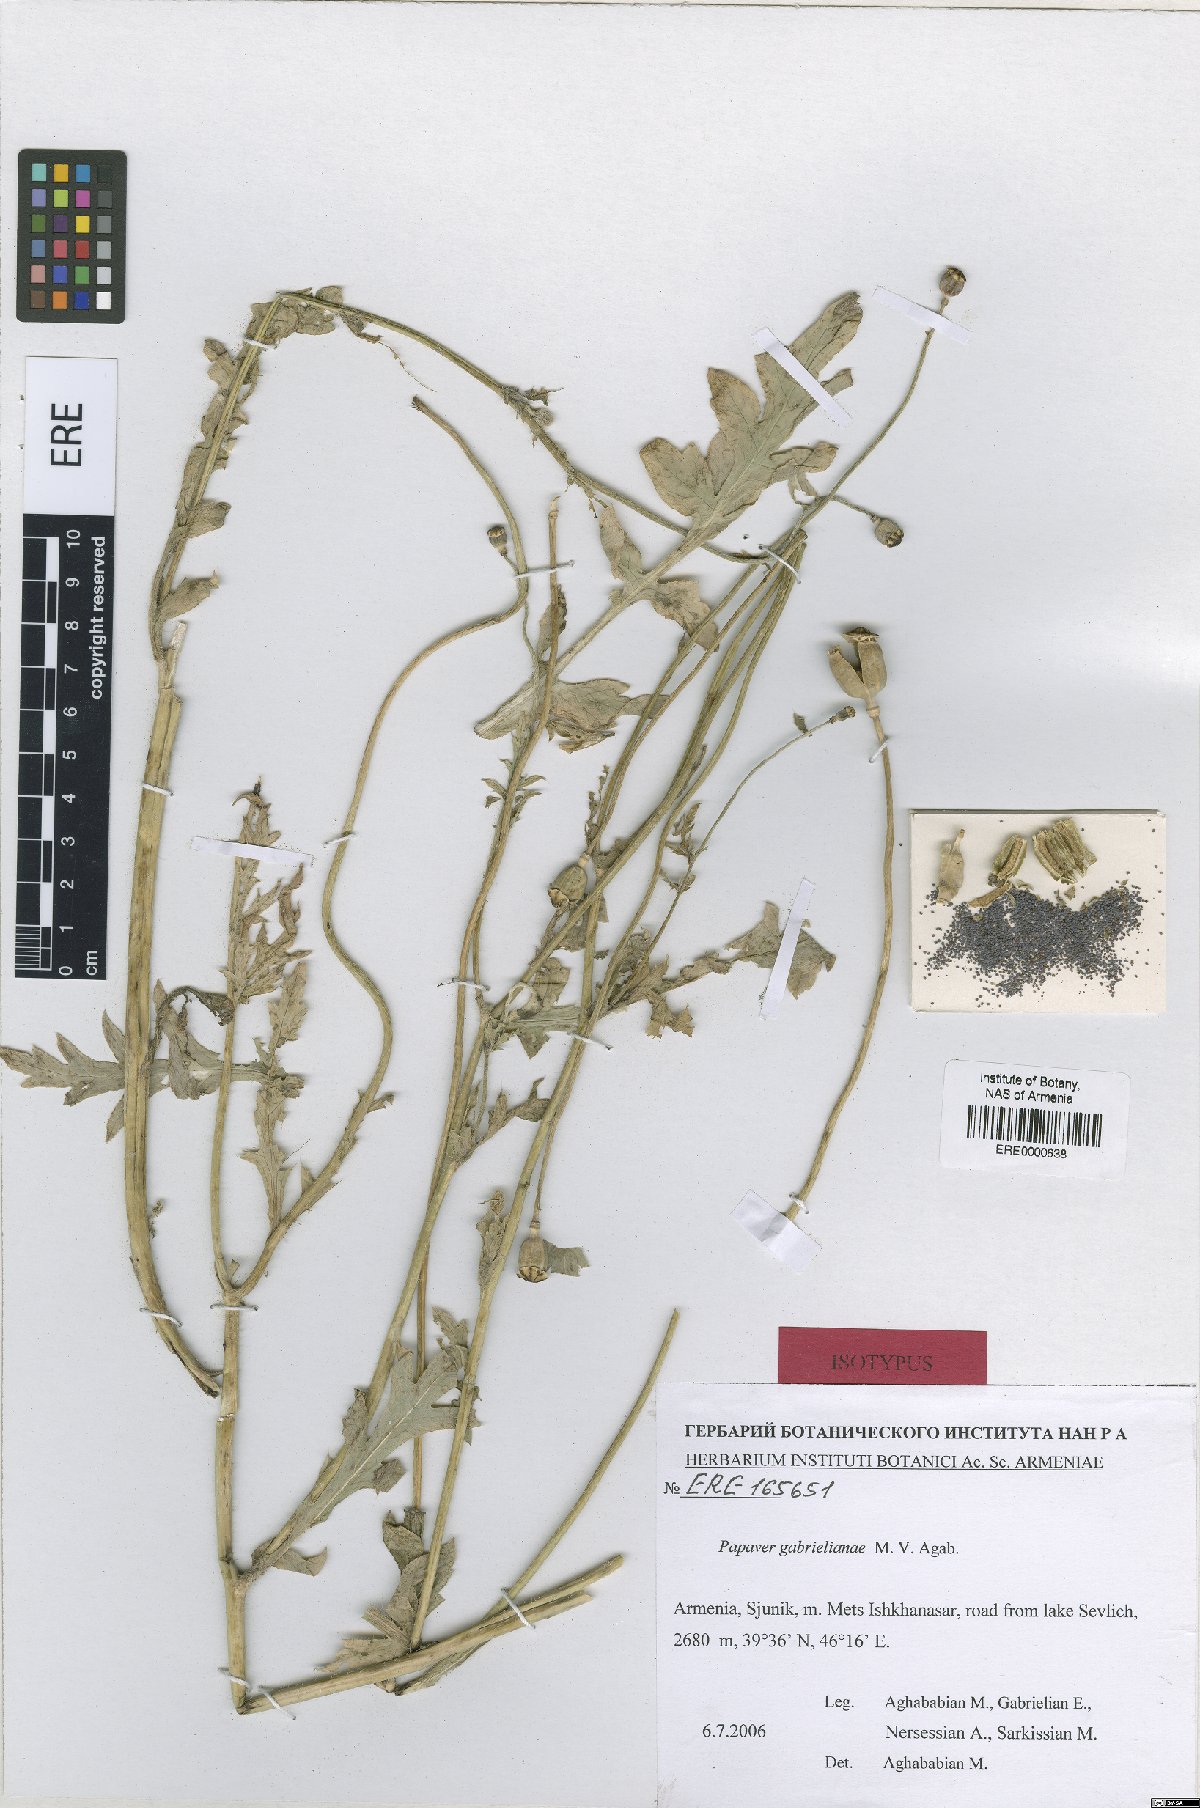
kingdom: Plantae
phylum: Tracheophyta
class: Magnoliopsida
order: Ranunculales
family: Papaveraceae
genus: Papaver
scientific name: Papaver rhoeas
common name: Corn poppy
